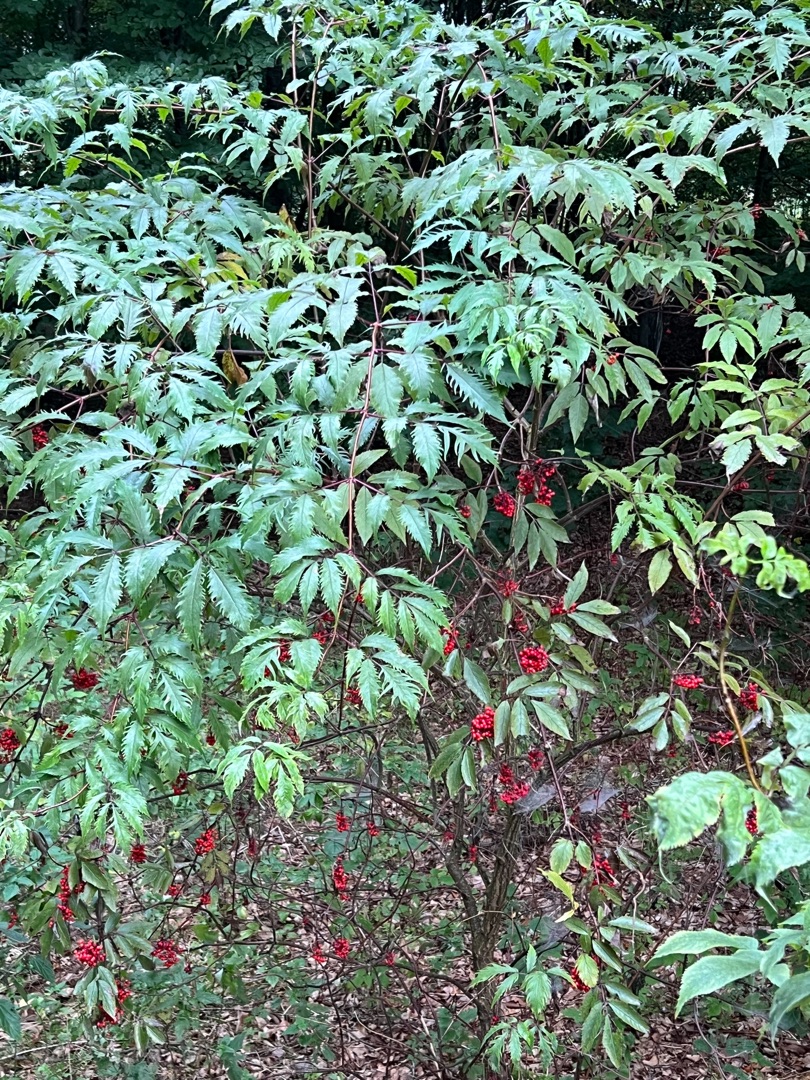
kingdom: Plantae
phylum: Tracheophyta
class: Magnoliopsida
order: Dipsacales
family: Viburnaceae
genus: Sambucus
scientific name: Sambucus racemosa
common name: Drue-hyld
